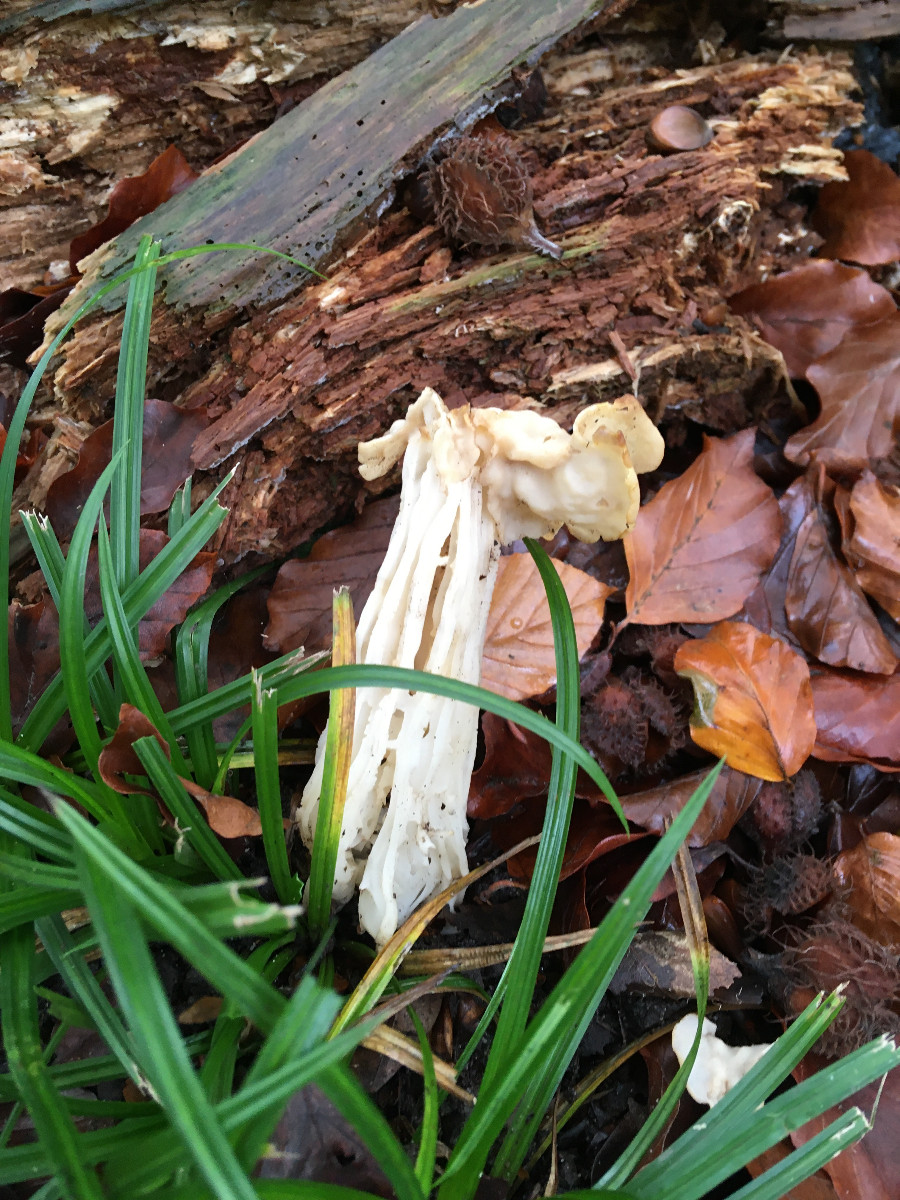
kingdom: Fungi
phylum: Ascomycota
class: Pezizomycetes
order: Pezizales
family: Helvellaceae
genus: Helvella
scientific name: Helvella crispa
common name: kruset foldhat
